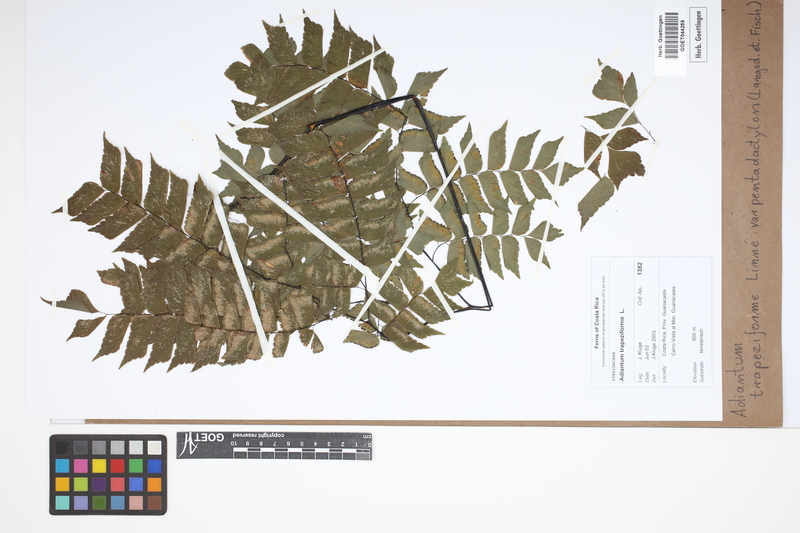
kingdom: Plantae
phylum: Tracheophyta
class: Polypodiopsida
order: Polypodiales
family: Pteridaceae
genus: Adiantum
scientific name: Adiantum pentadactylon
